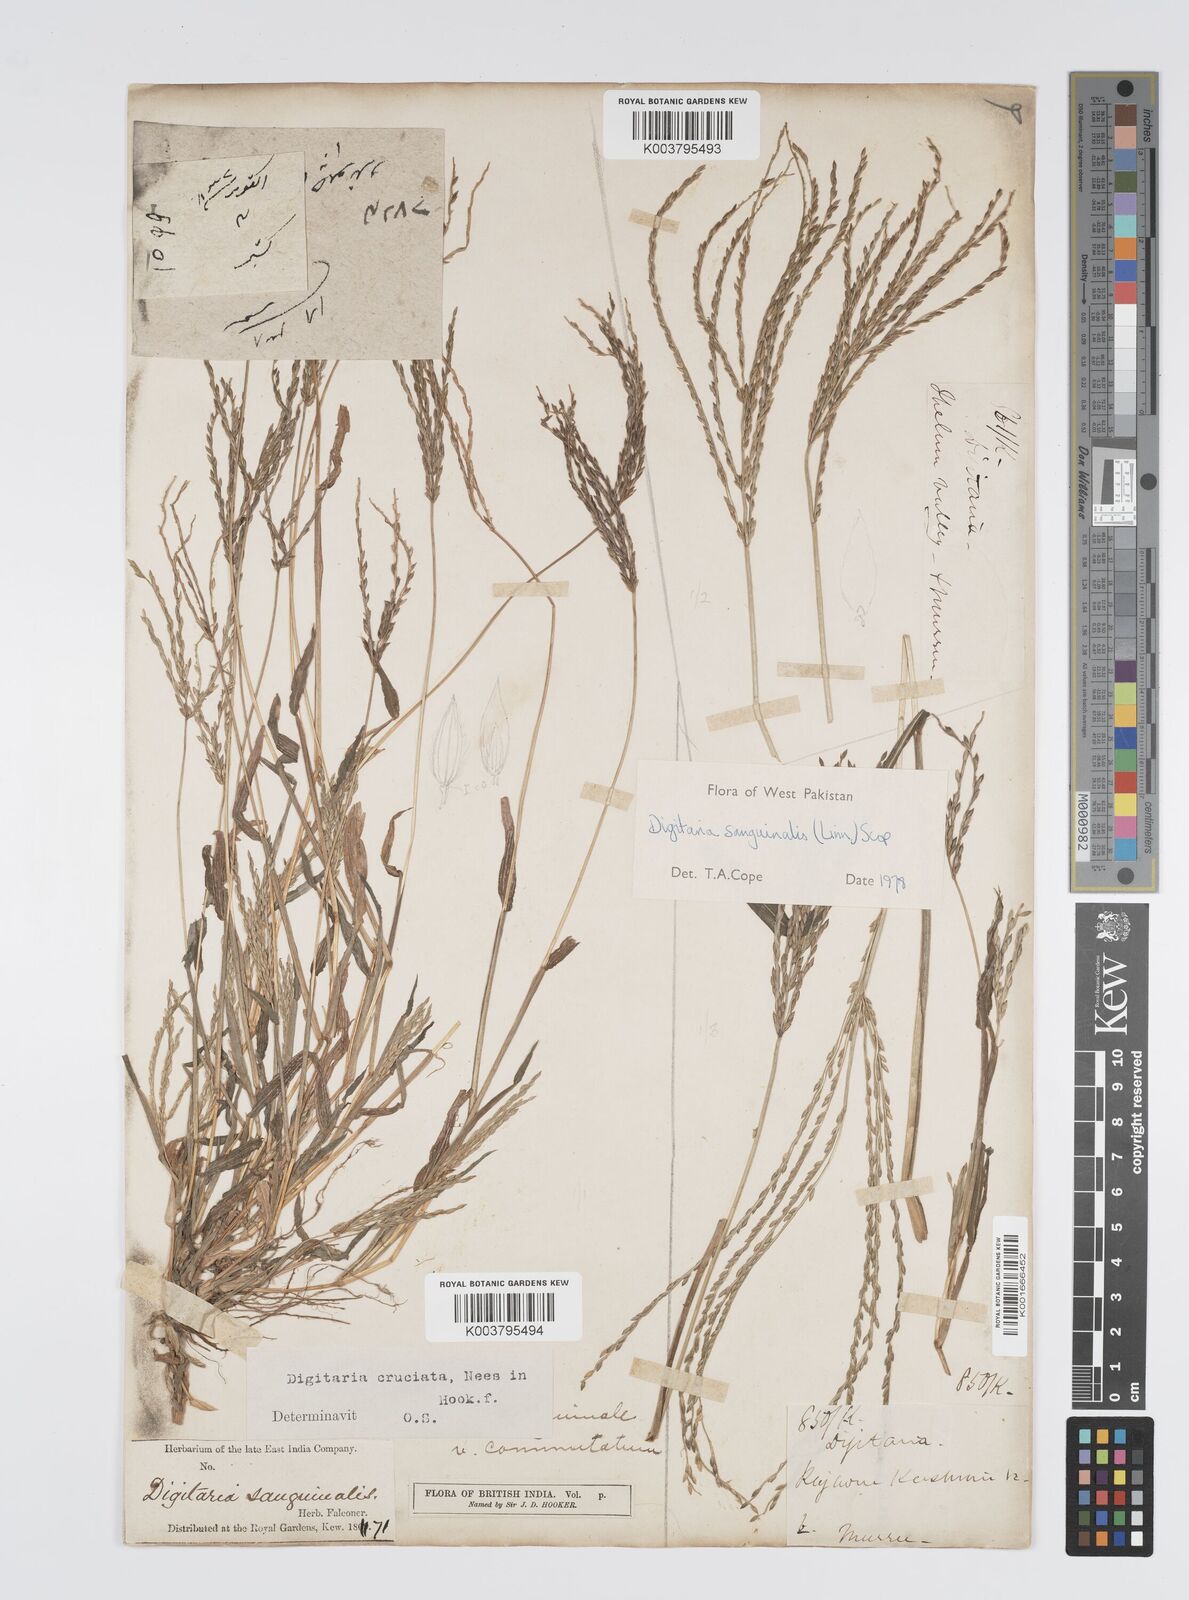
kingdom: Plantae
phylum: Tracheophyta
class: Liliopsida
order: Poales
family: Poaceae
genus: Digitaria
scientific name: Digitaria sanguinalis
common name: Hairy crabgrass
